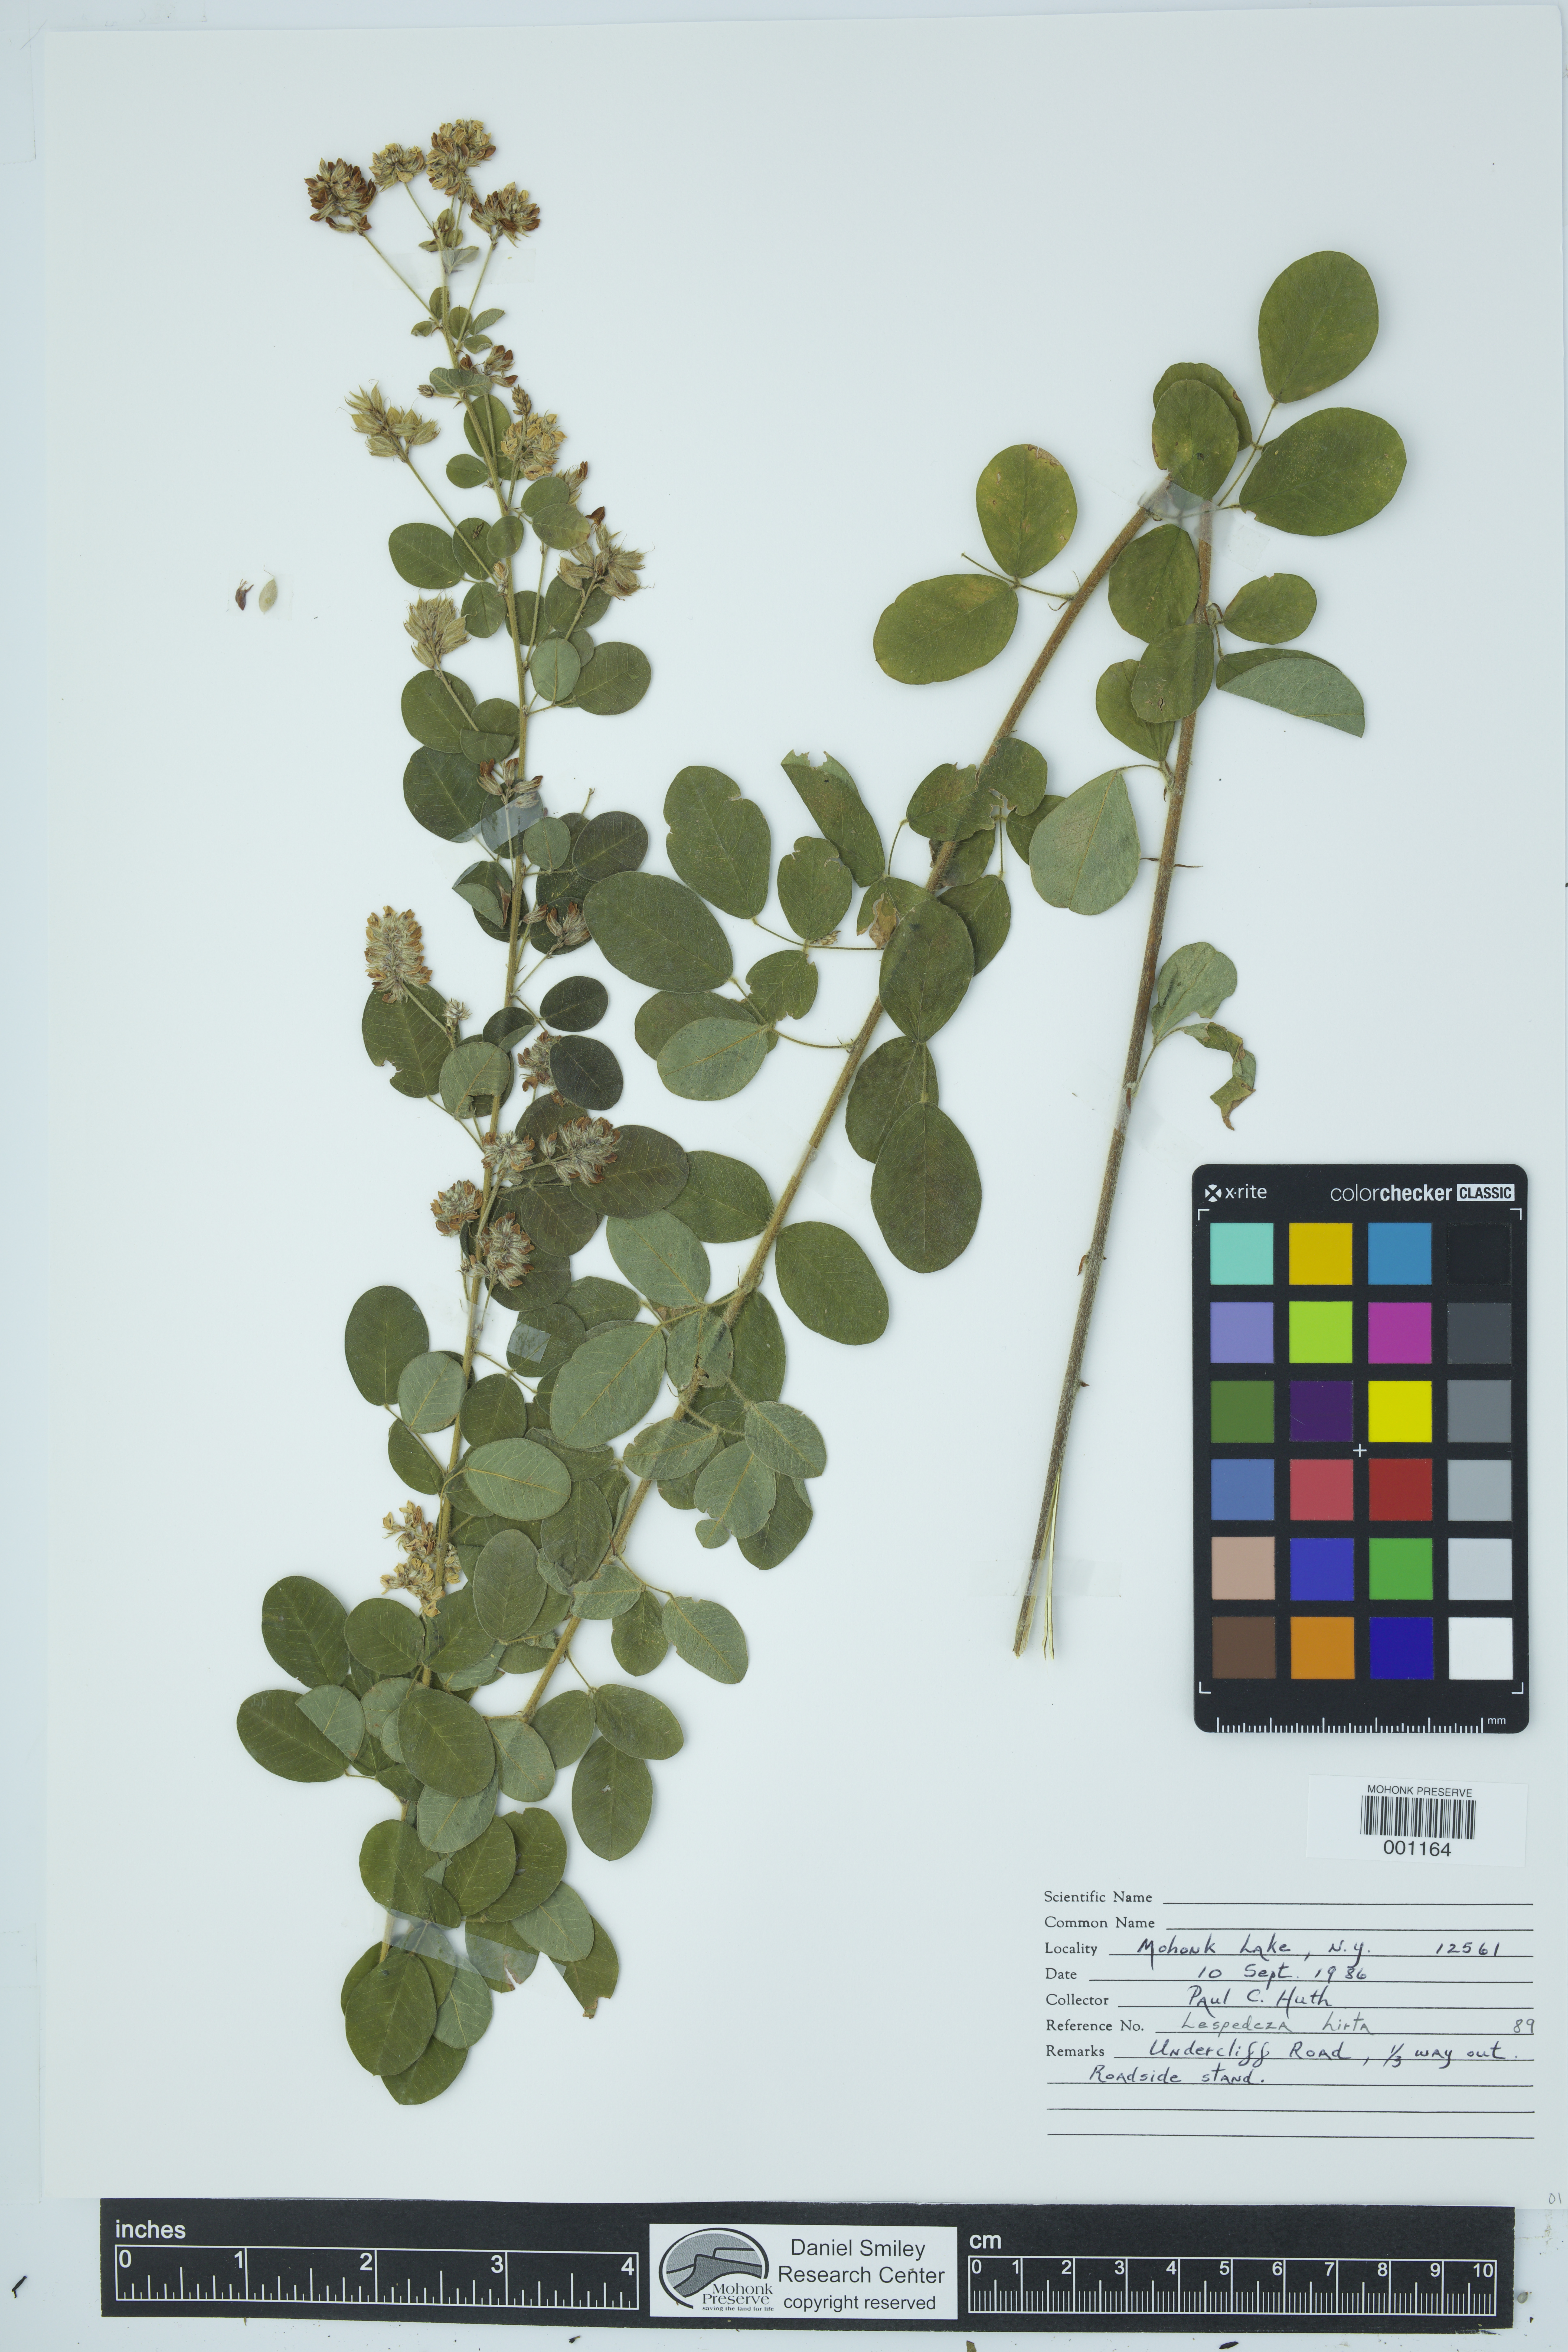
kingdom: Plantae
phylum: Tracheophyta
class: Magnoliopsida
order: Fabales
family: Fabaceae
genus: Lespedeza
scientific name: Lespedeza hirta
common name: Hairy lespedeza
